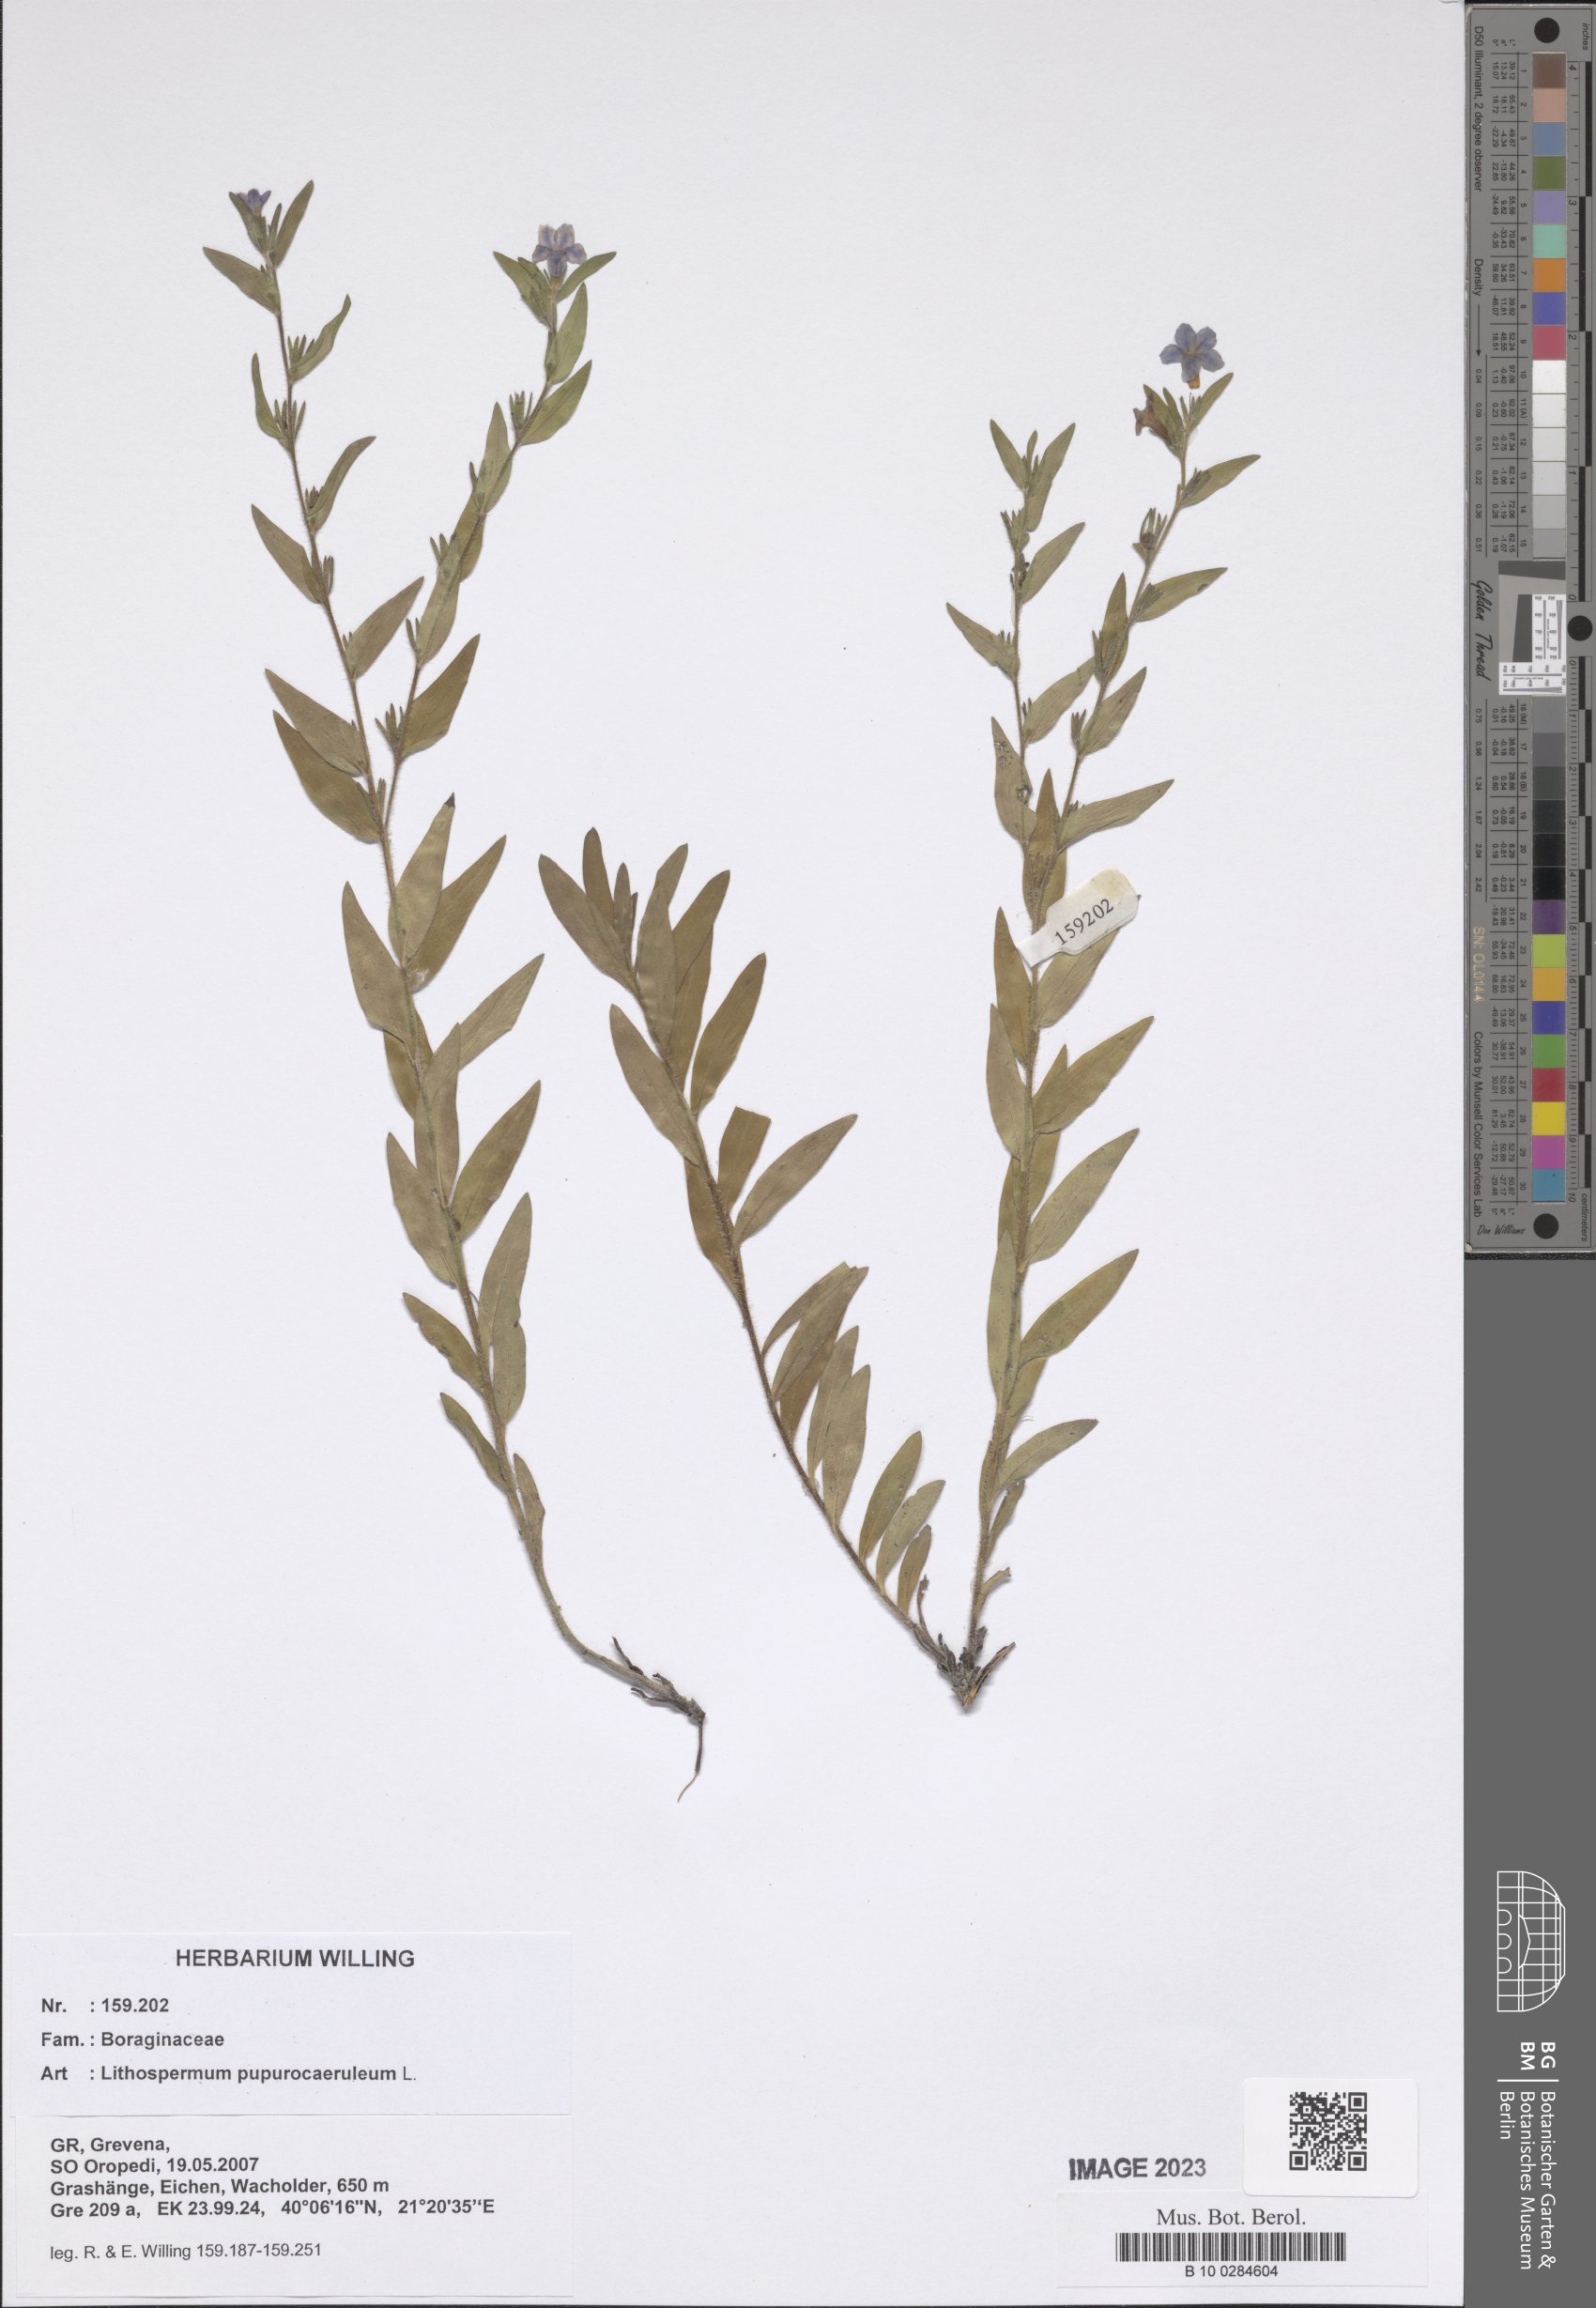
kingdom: Plantae
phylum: Tracheophyta
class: Magnoliopsida
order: Boraginales
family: Boraginaceae
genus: Aegonychon
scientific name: Aegonychon purpurocaeruleum
